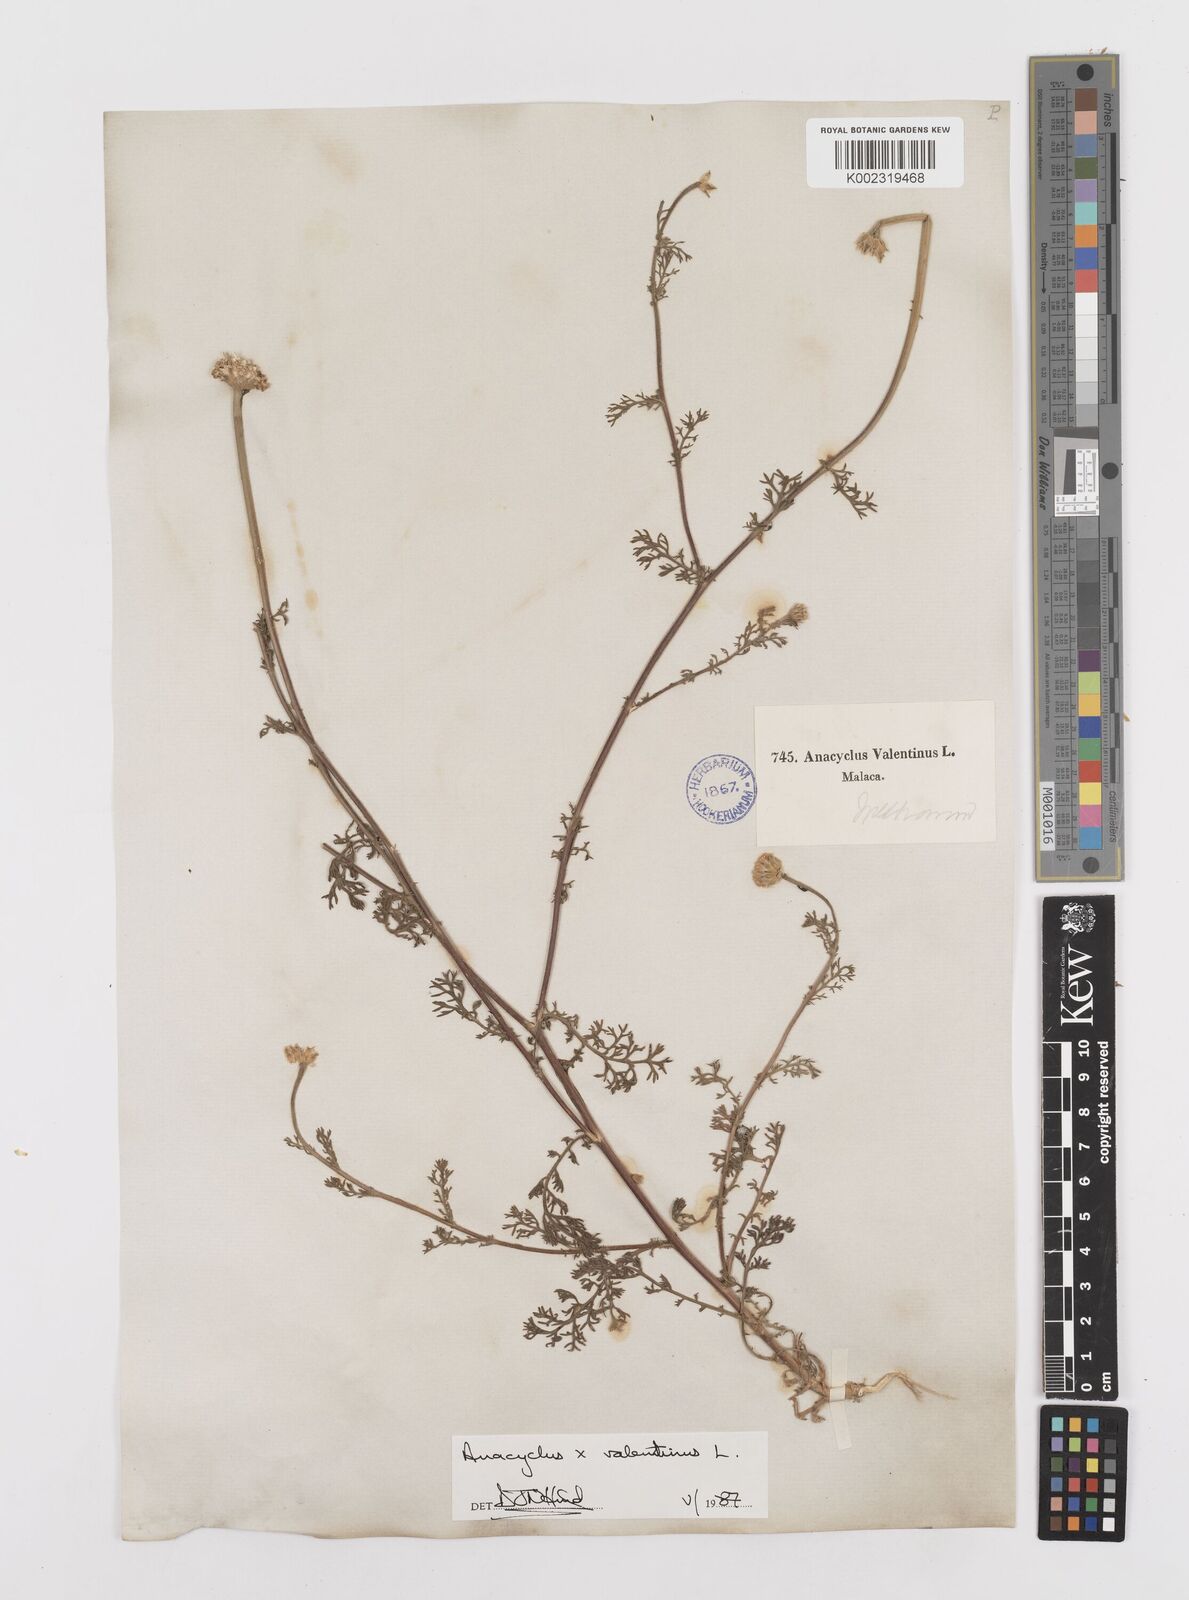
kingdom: Plantae
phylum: Tracheophyta
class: Magnoliopsida
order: Asterales
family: Asteraceae
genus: Anacyclus
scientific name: Anacyclus valentinus
